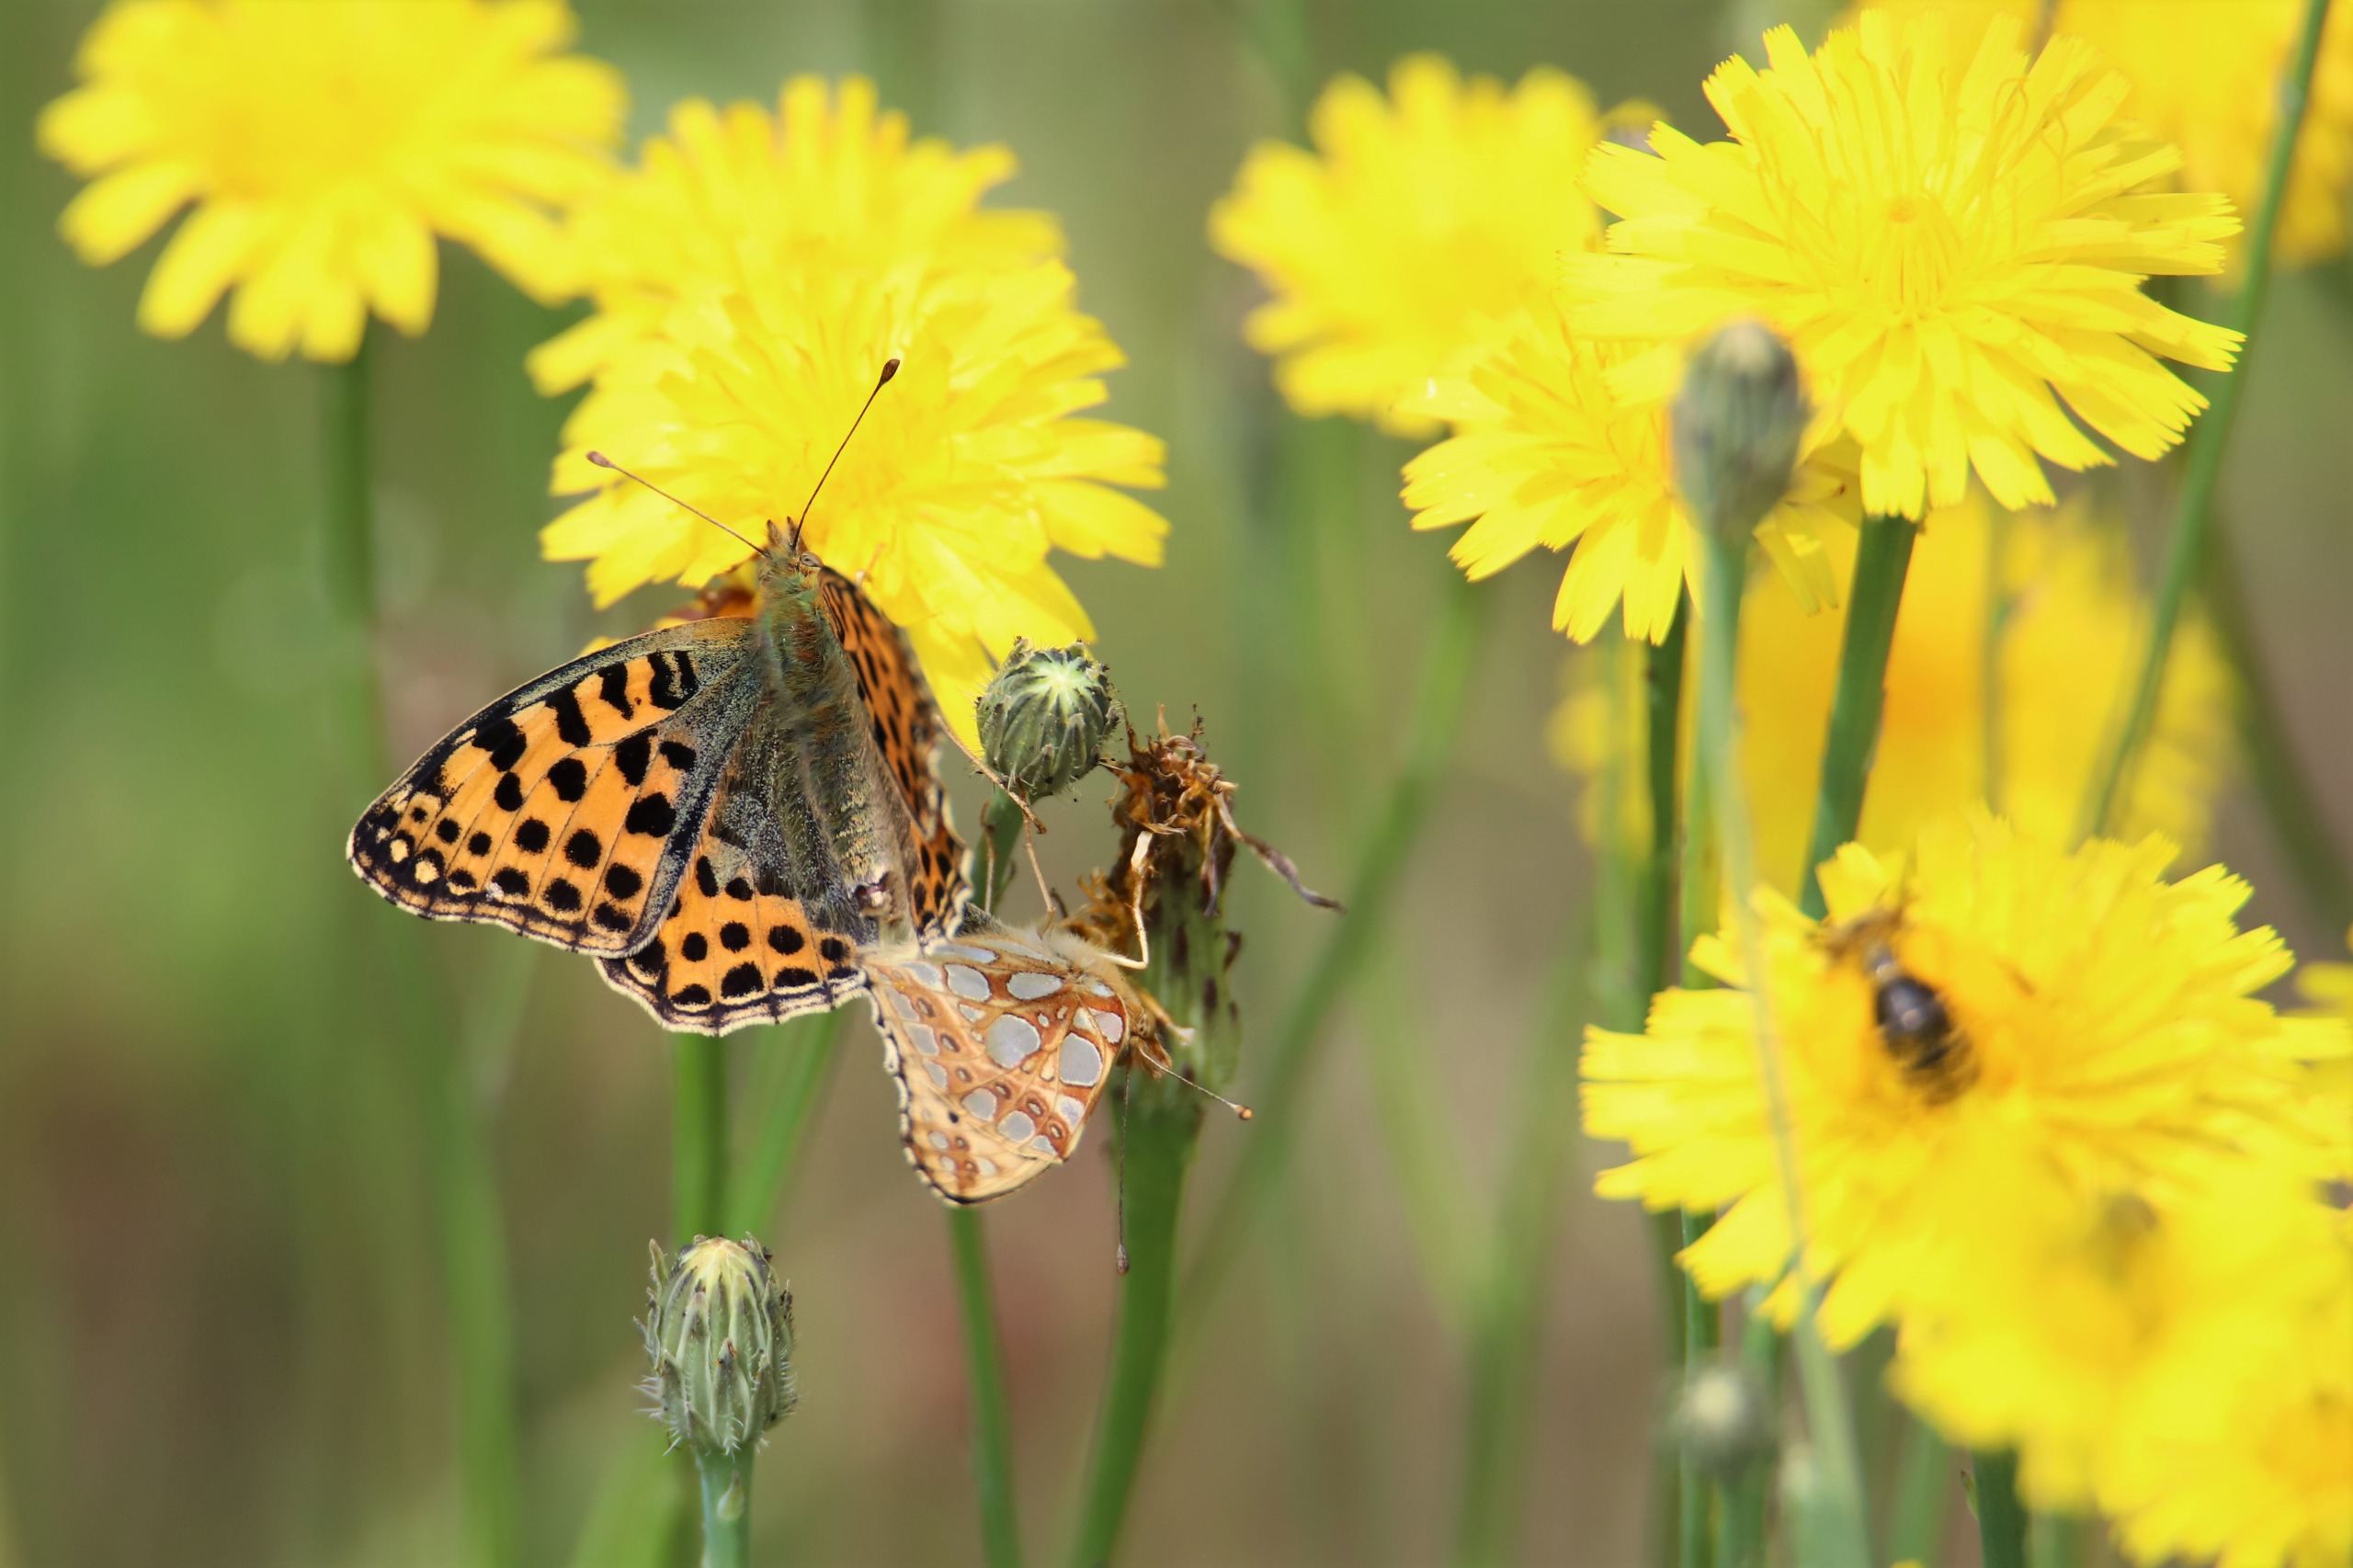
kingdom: Animalia
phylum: Arthropoda
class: Insecta
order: Lepidoptera
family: Nymphalidae
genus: Issoria
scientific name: Issoria lathonia
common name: Storplettet perlemorsommerfugl
